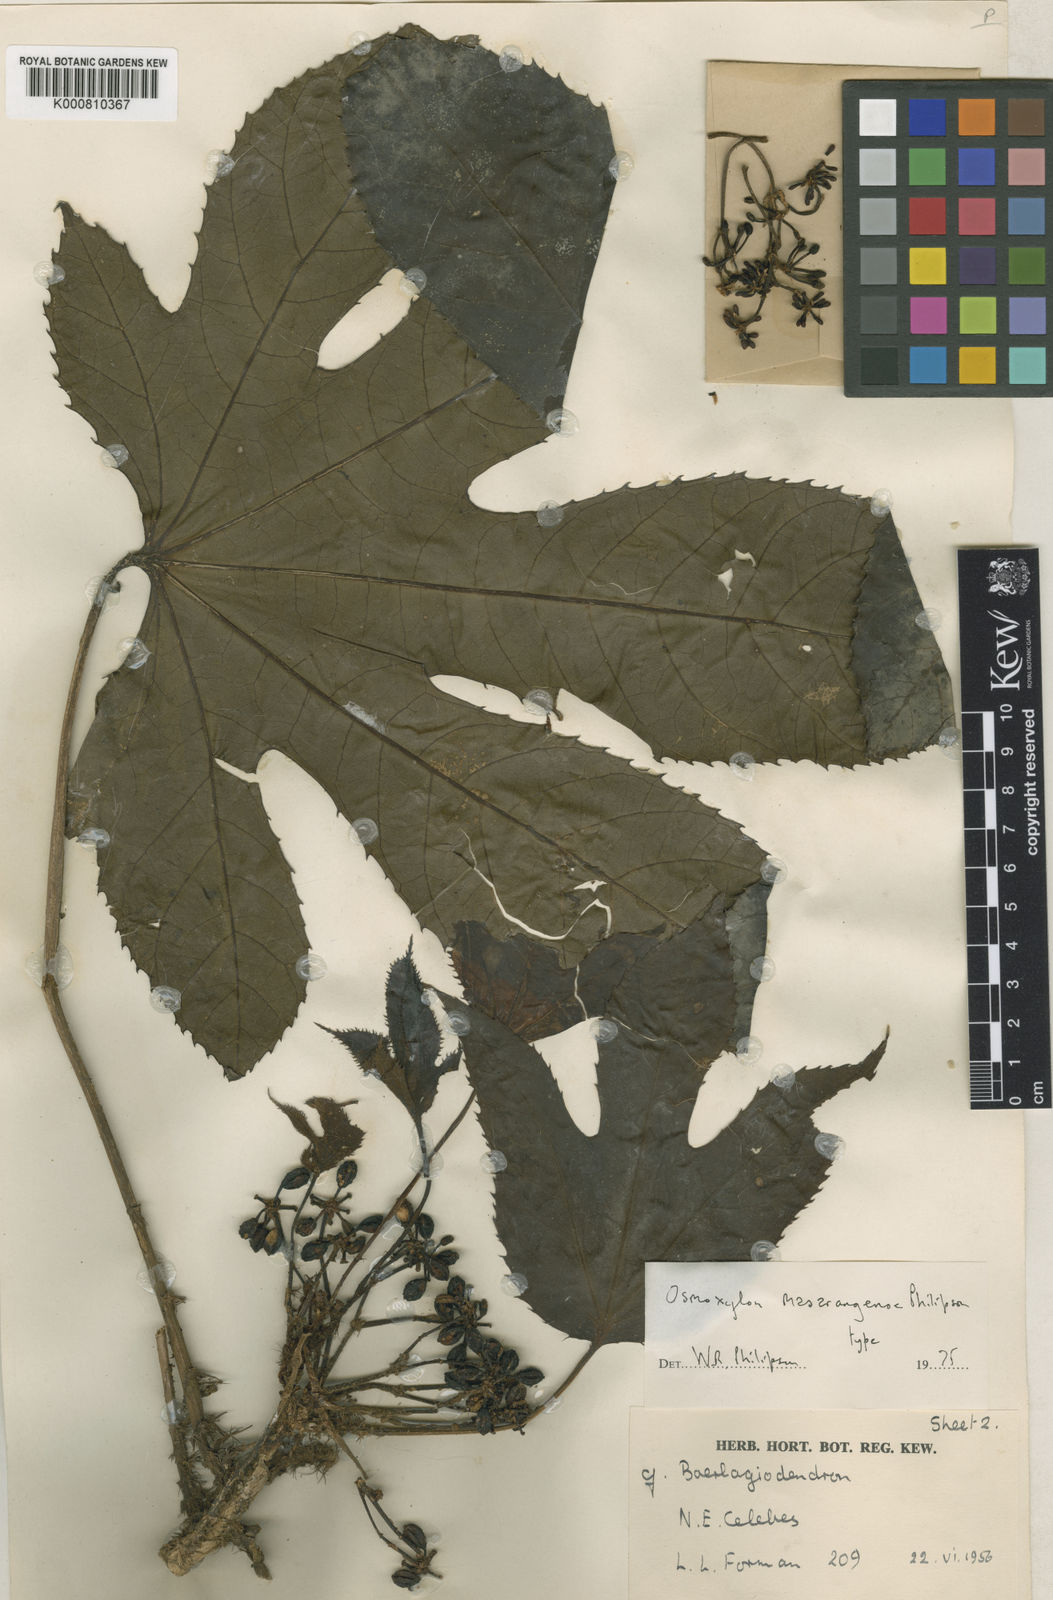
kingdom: Plantae
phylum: Tracheophyta
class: Magnoliopsida
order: Apiales
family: Araliaceae
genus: Osmoxylon
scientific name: Osmoxylon masarangense
